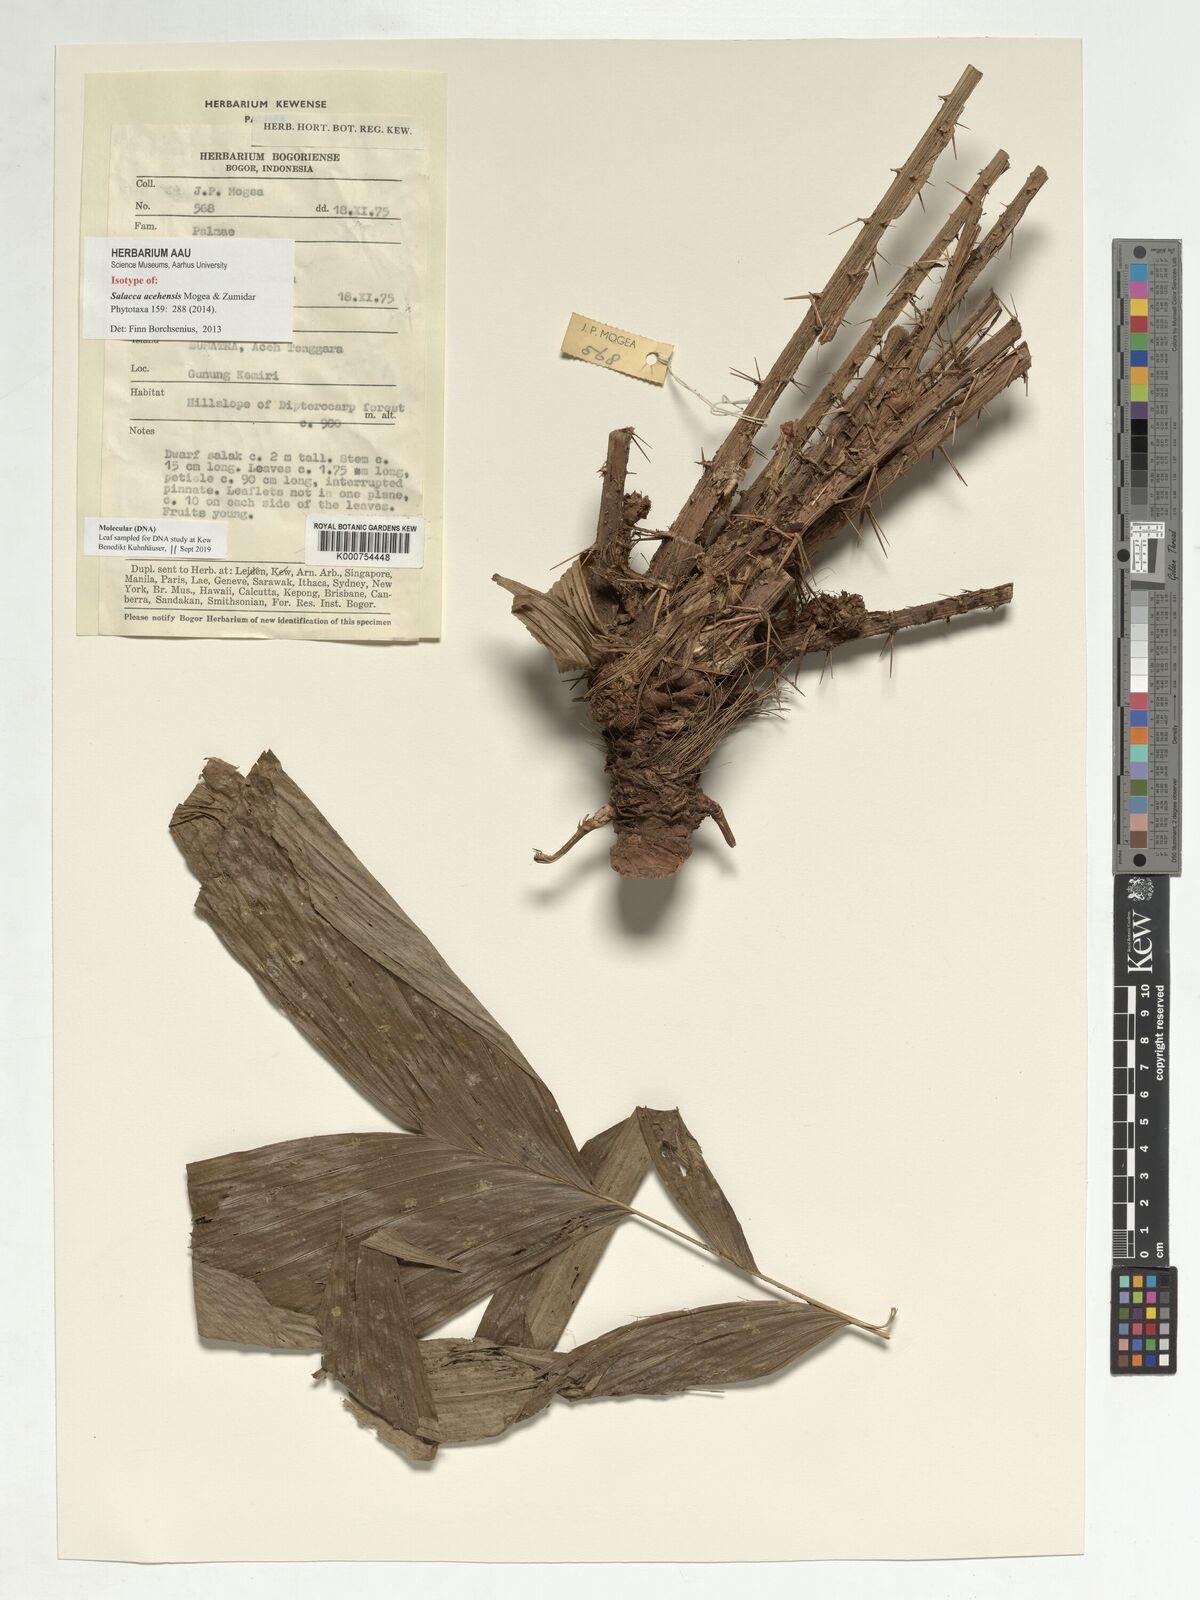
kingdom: Plantae
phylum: Tracheophyta
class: Liliopsida
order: Arecales
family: Arecaceae
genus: Salacca
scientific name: Salacca acehensis
